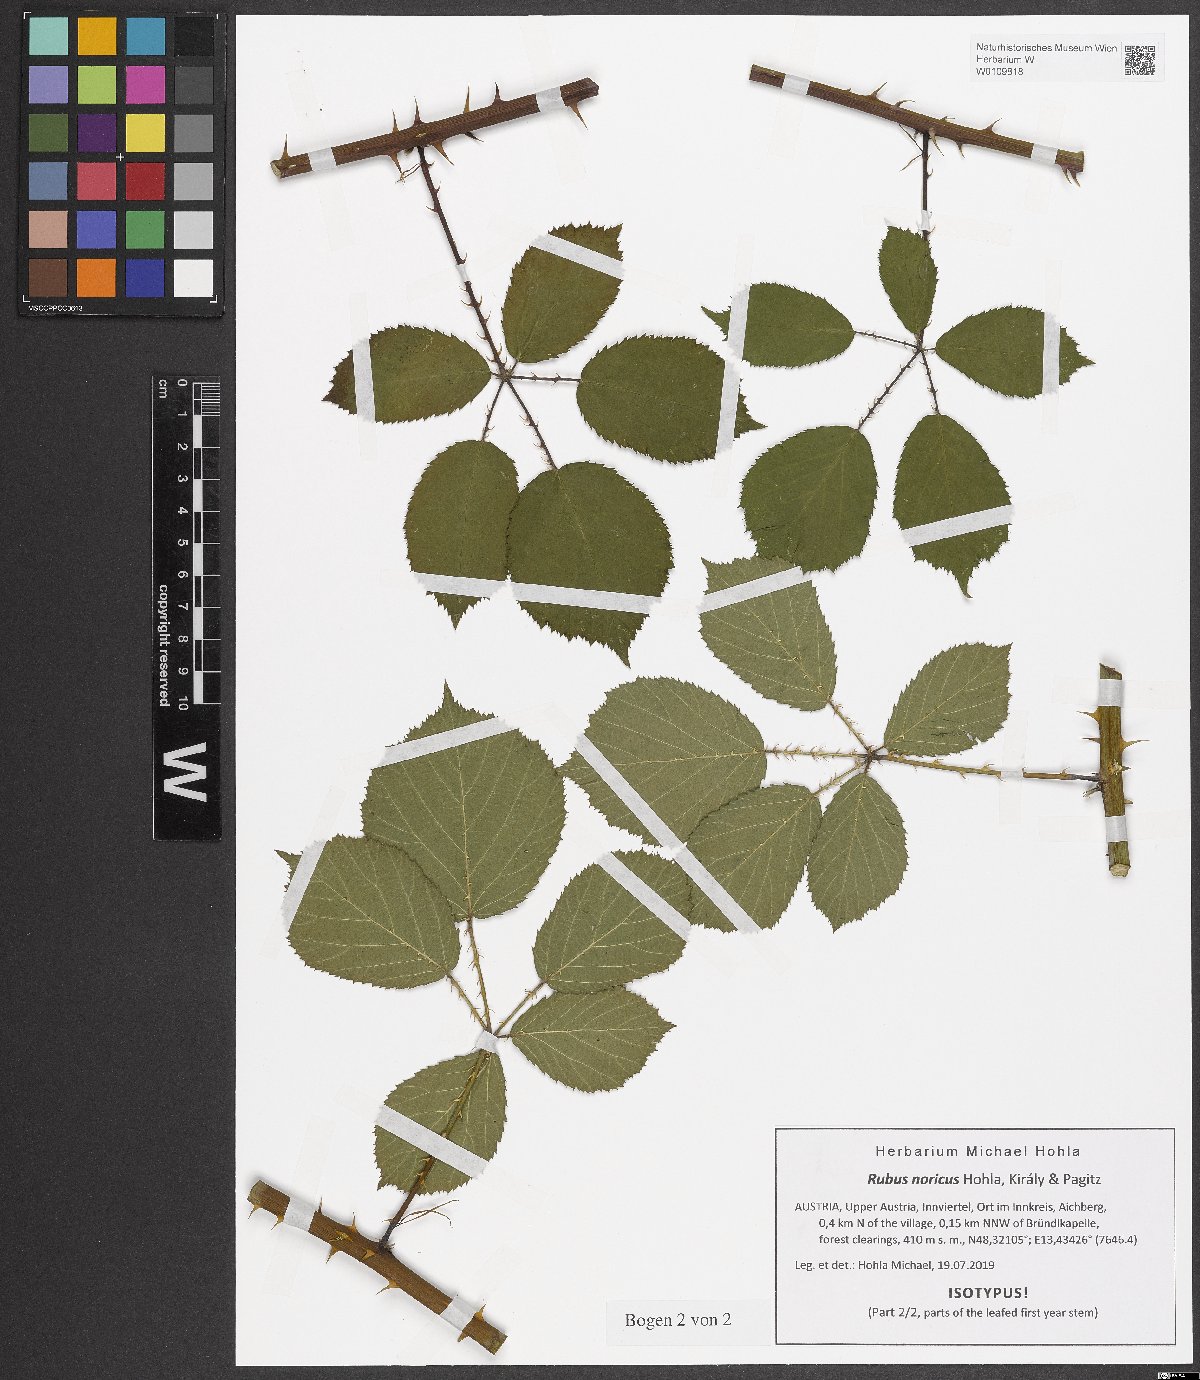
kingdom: Plantae
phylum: Tracheophyta
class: Magnoliopsida
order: Rosales
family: Rosaceae
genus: Rubus
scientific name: Rubus noricus
